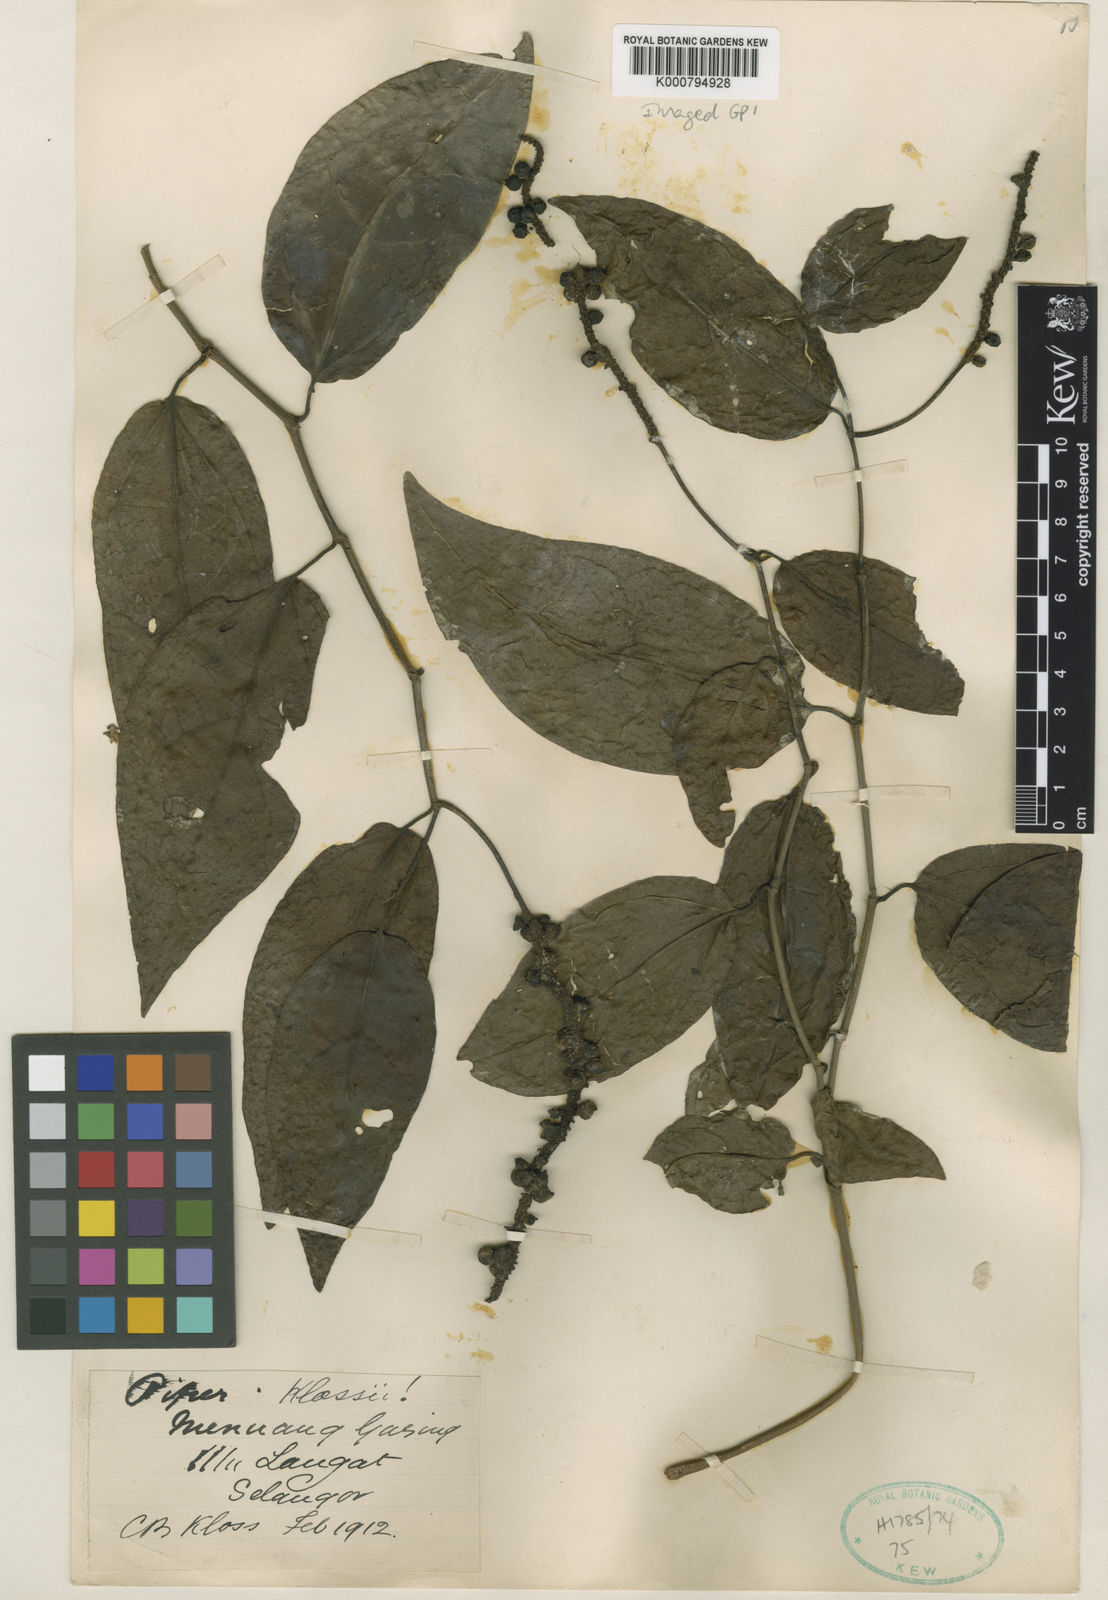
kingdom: Plantae
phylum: Tracheophyta
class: Magnoliopsida
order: Piperales
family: Piperaceae
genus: Piper
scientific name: Piper klossii
